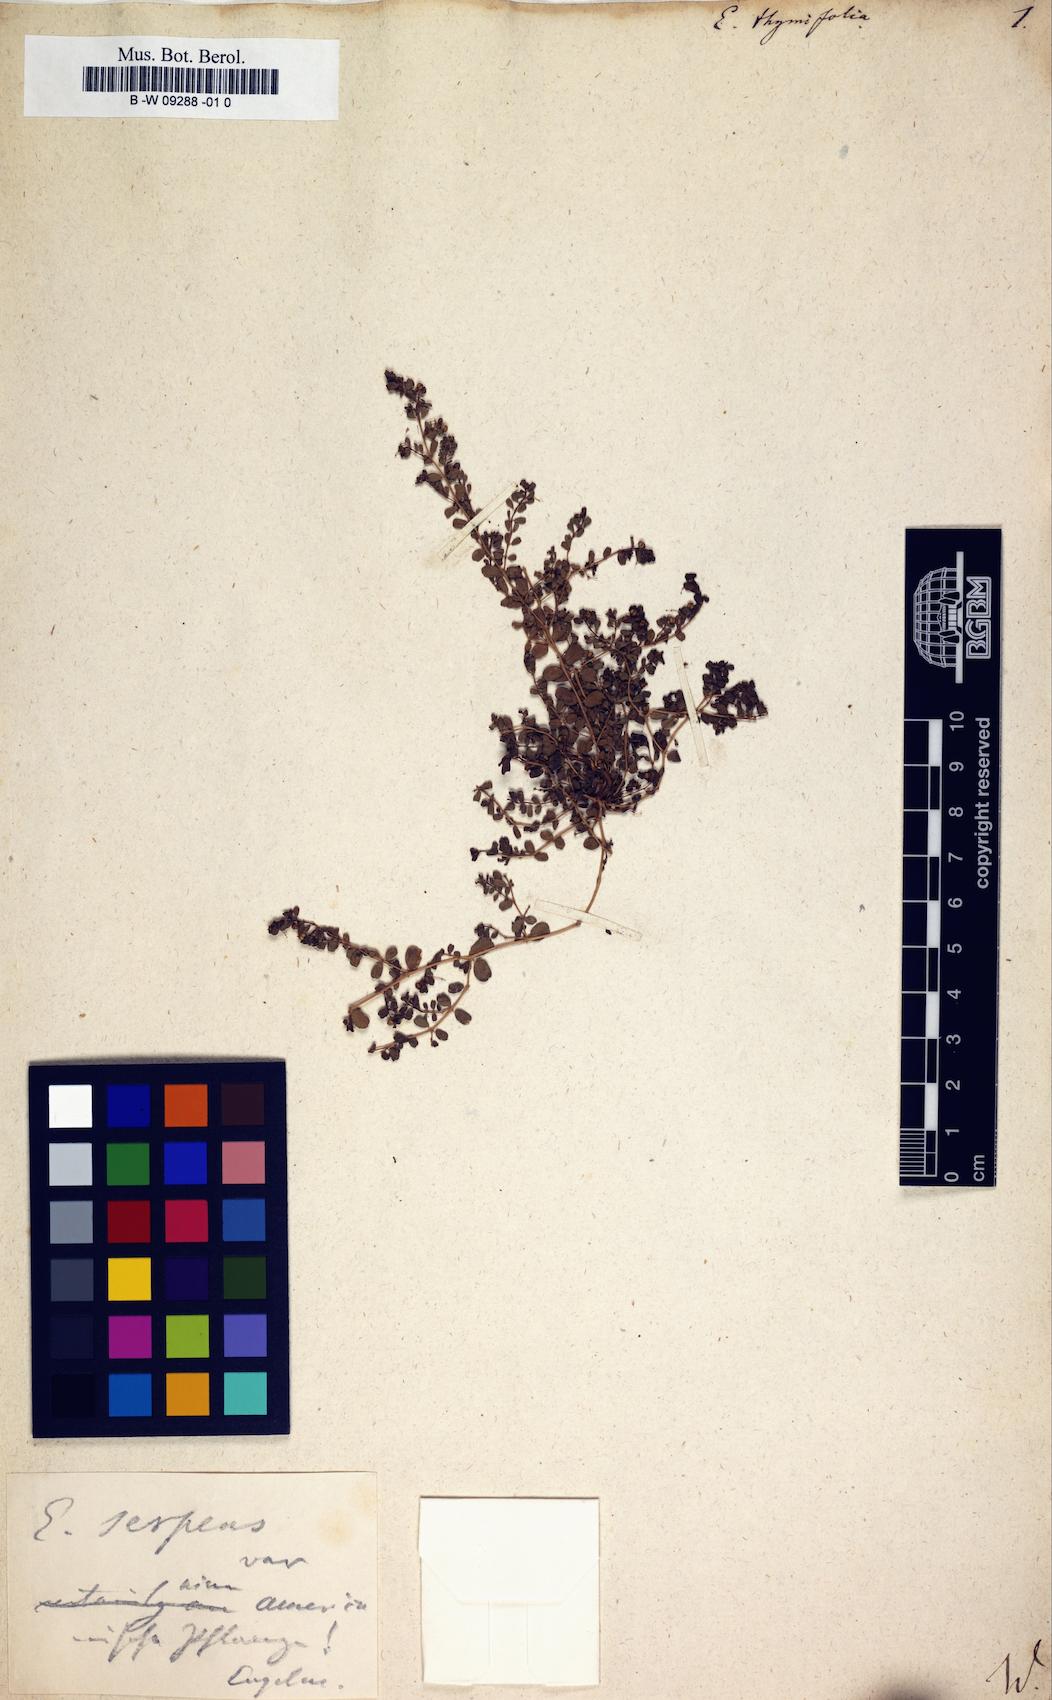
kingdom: Plantae
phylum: Tracheophyta
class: Magnoliopsida
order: Malpighiales
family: Euphorbiaceae
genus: Euphorbia
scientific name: Euphorbia thymifolia
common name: Gulf sandmat
